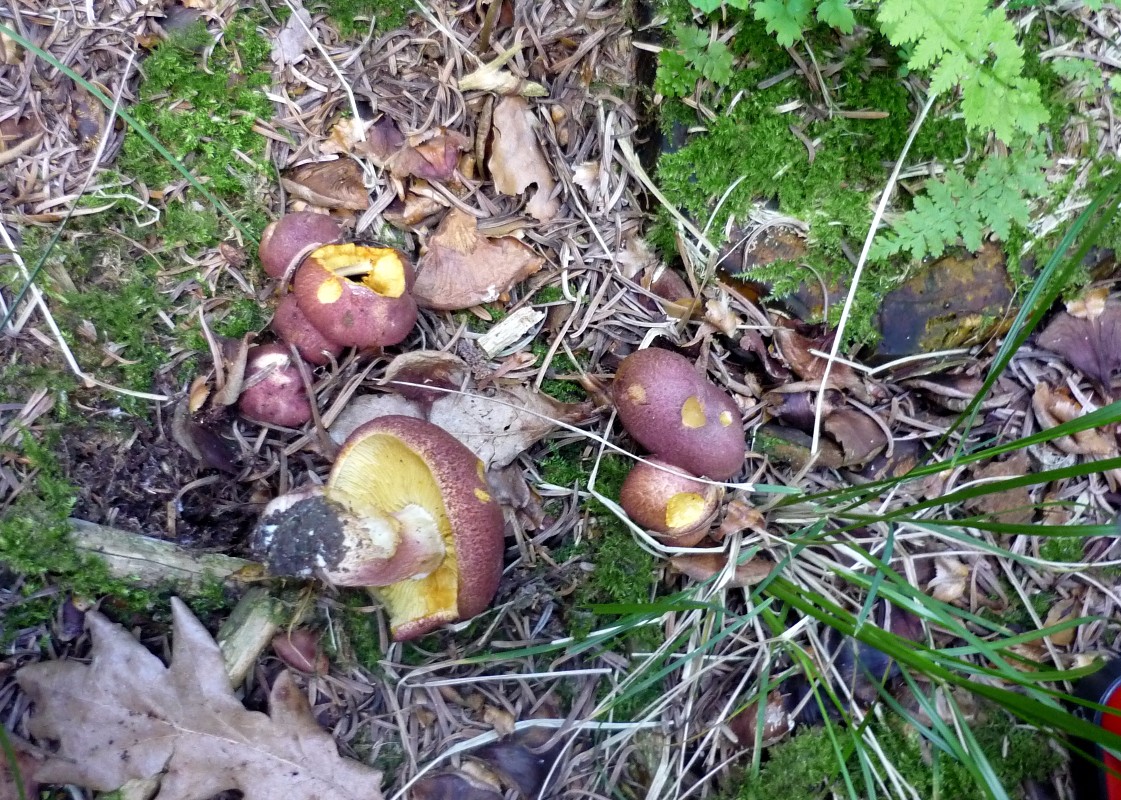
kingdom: Fungi
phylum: Basidiomycota
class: Agaricomycetes
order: Agaricales
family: Tricholomataceae
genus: Tricholomopsis
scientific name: Tricholomopsis rutilans
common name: purpur-væbnerhat
